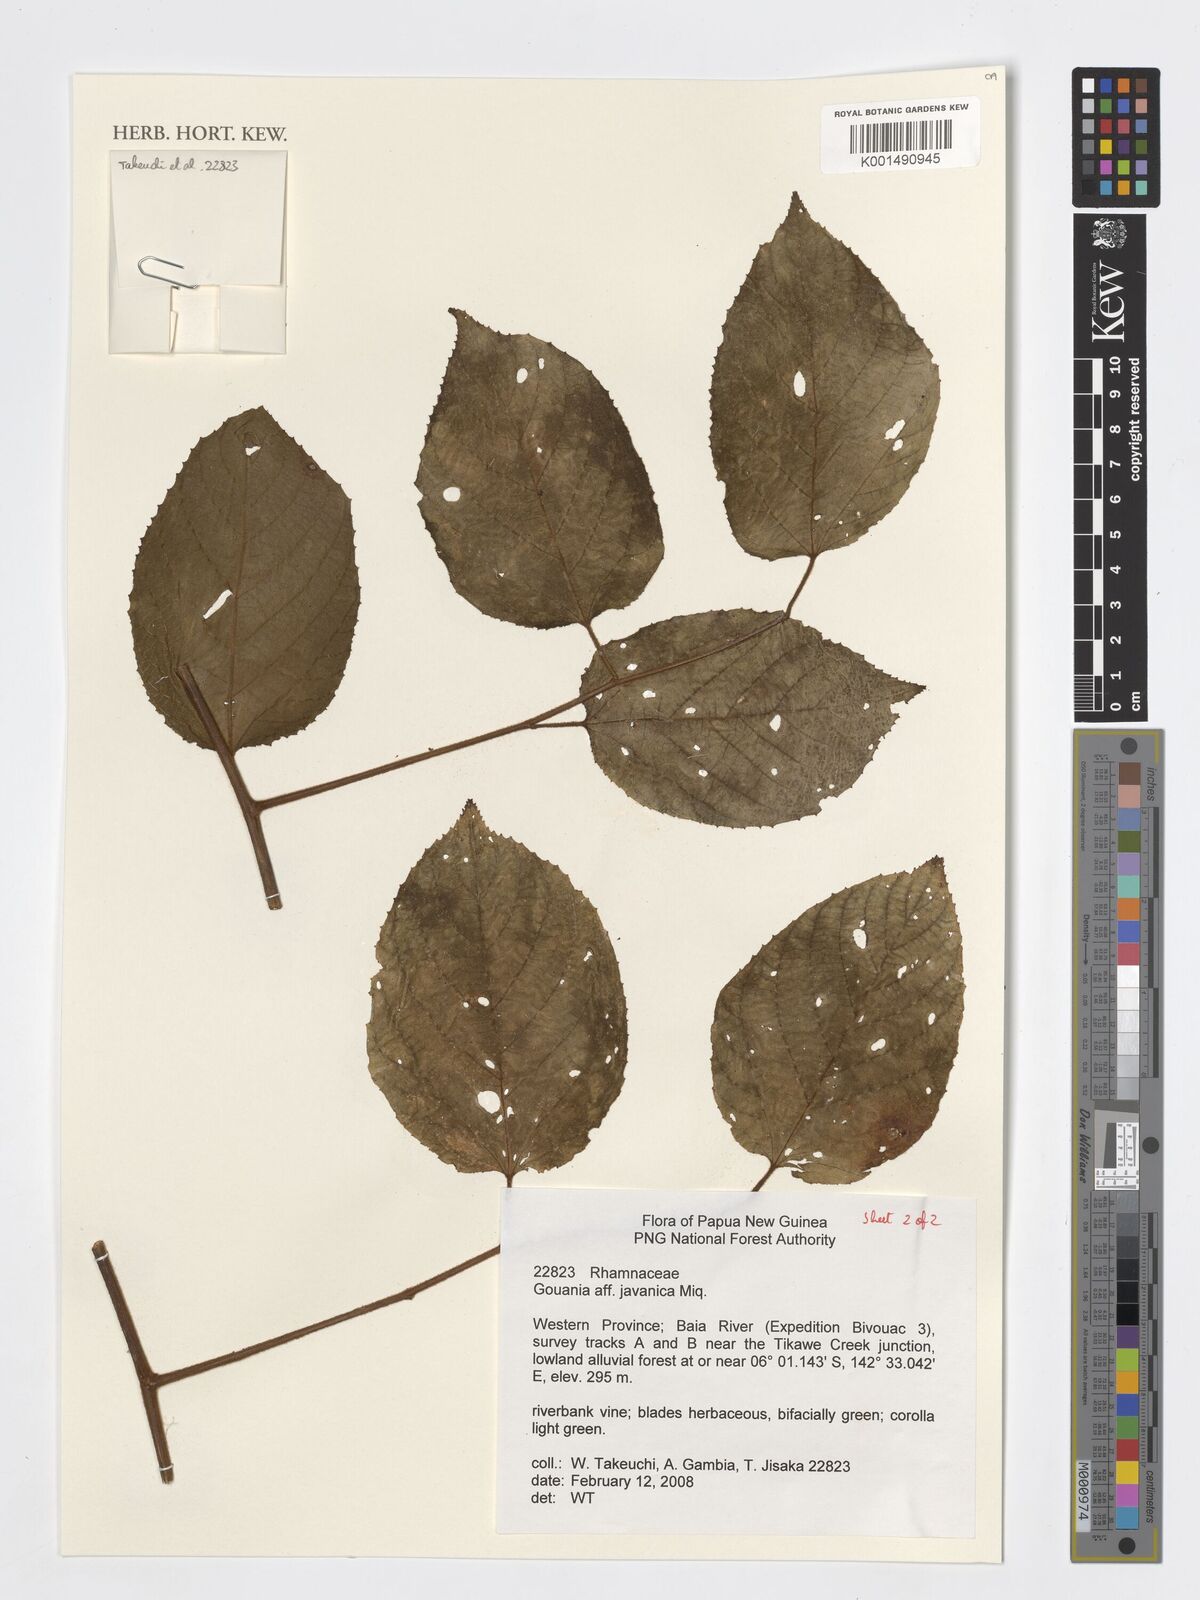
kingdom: Plantae
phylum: Tracheophyta
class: Magnoliopsida
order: Rosales
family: Rhamnaceae
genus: Gouania
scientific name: Gouania obtusifolia
